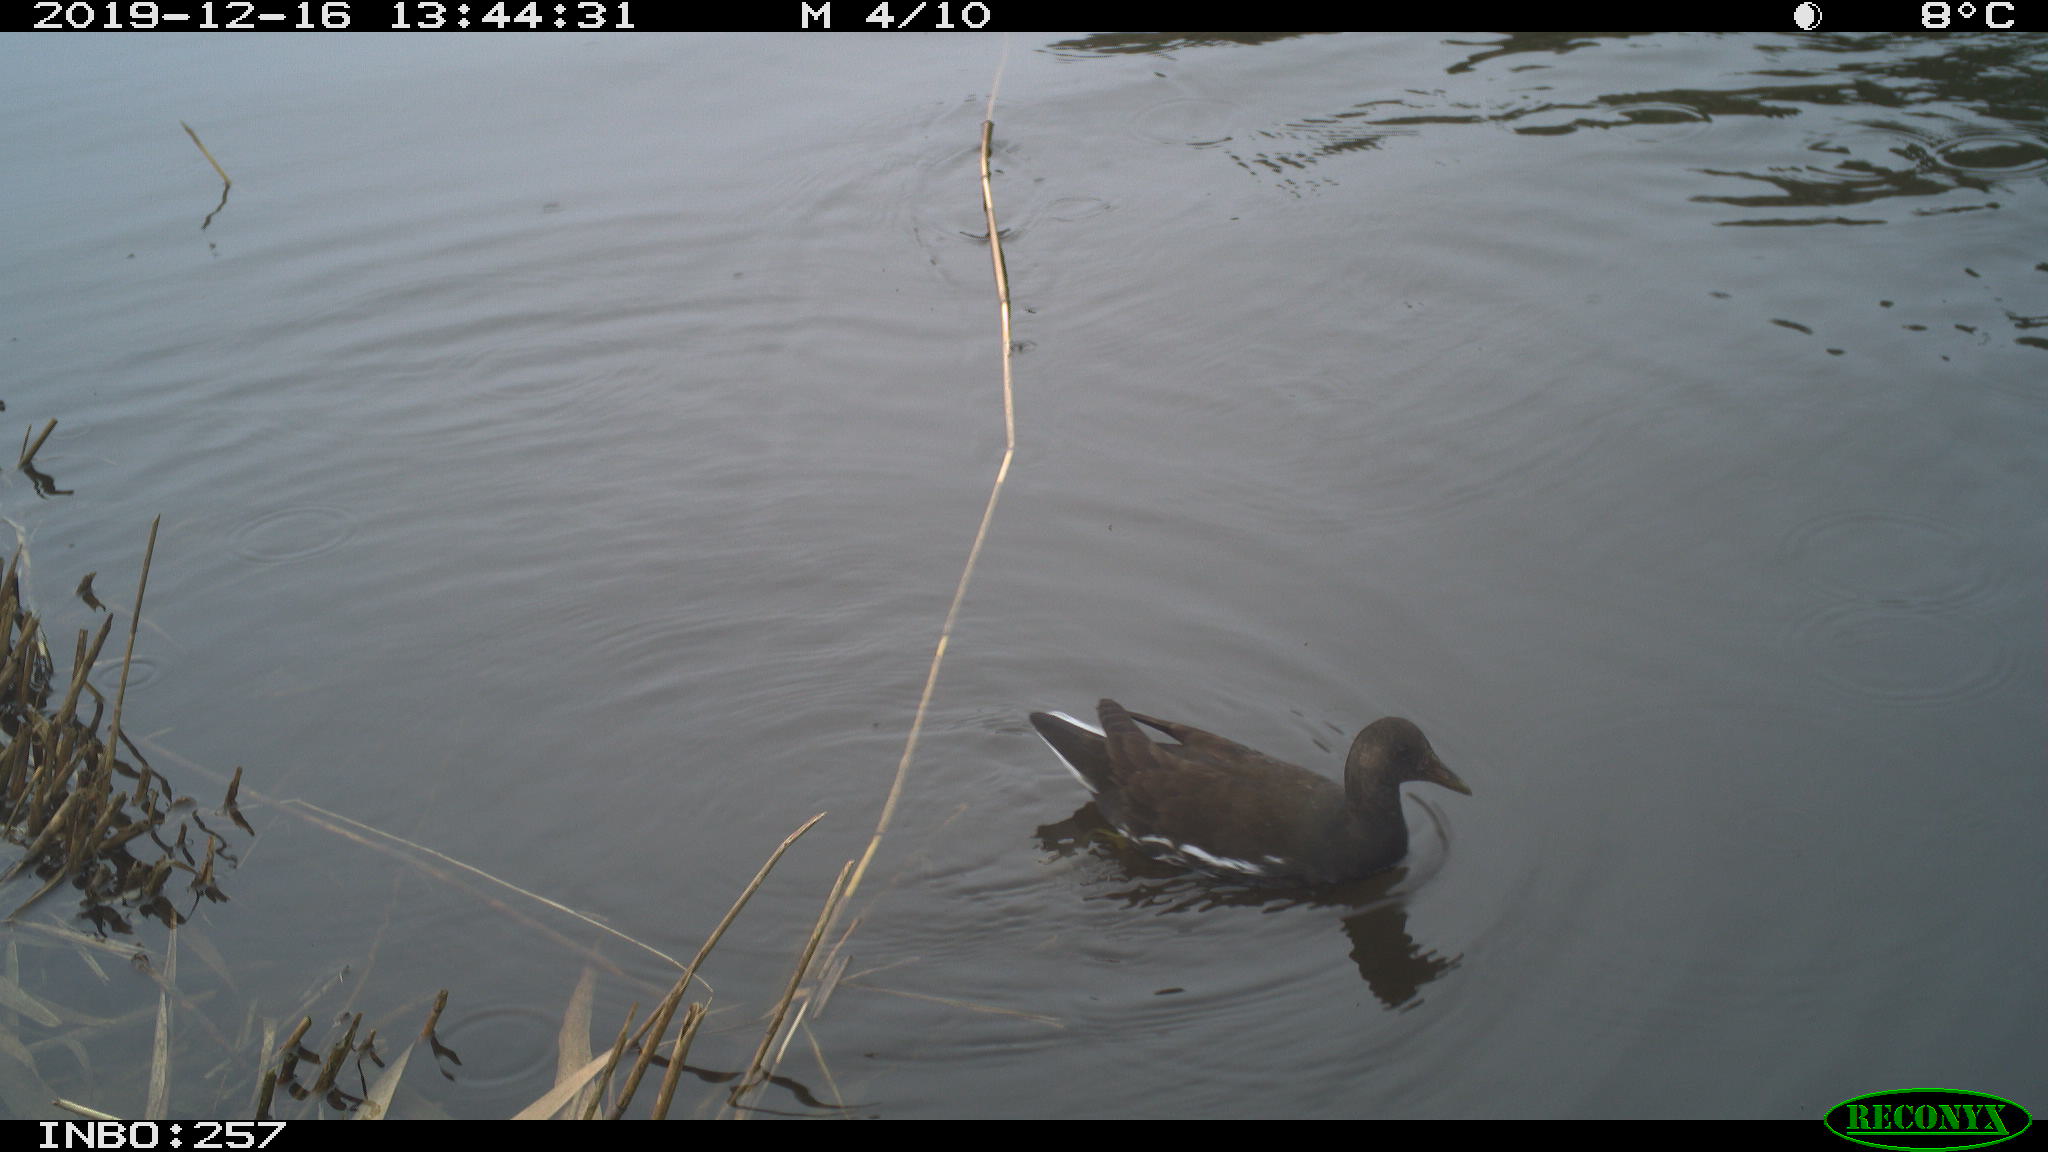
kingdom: Animalia
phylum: Chordata
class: Aves
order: Gruiformes
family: Rallidae
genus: Gallinula
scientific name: Gallinula chloropus
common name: Common moorhen
